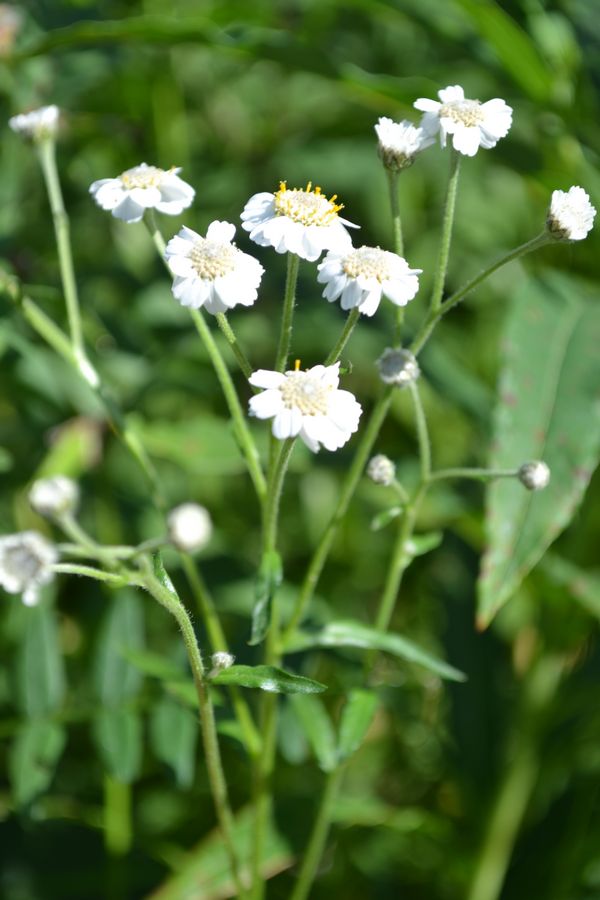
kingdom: Plantae
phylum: Tracheophyta
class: Magnoliopsida
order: Asterales
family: Asteraceae
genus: Achillea
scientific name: Achillea ptarmica
